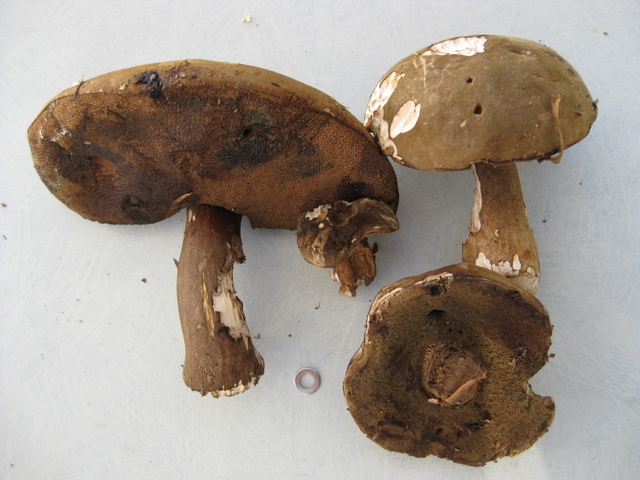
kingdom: Fungi
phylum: Basidiomycota
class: Agaricomycetes
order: Boletales
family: Boletaceae
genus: Porphyrellus
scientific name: Porphyrellus porphyrosporus
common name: sodrørhat
